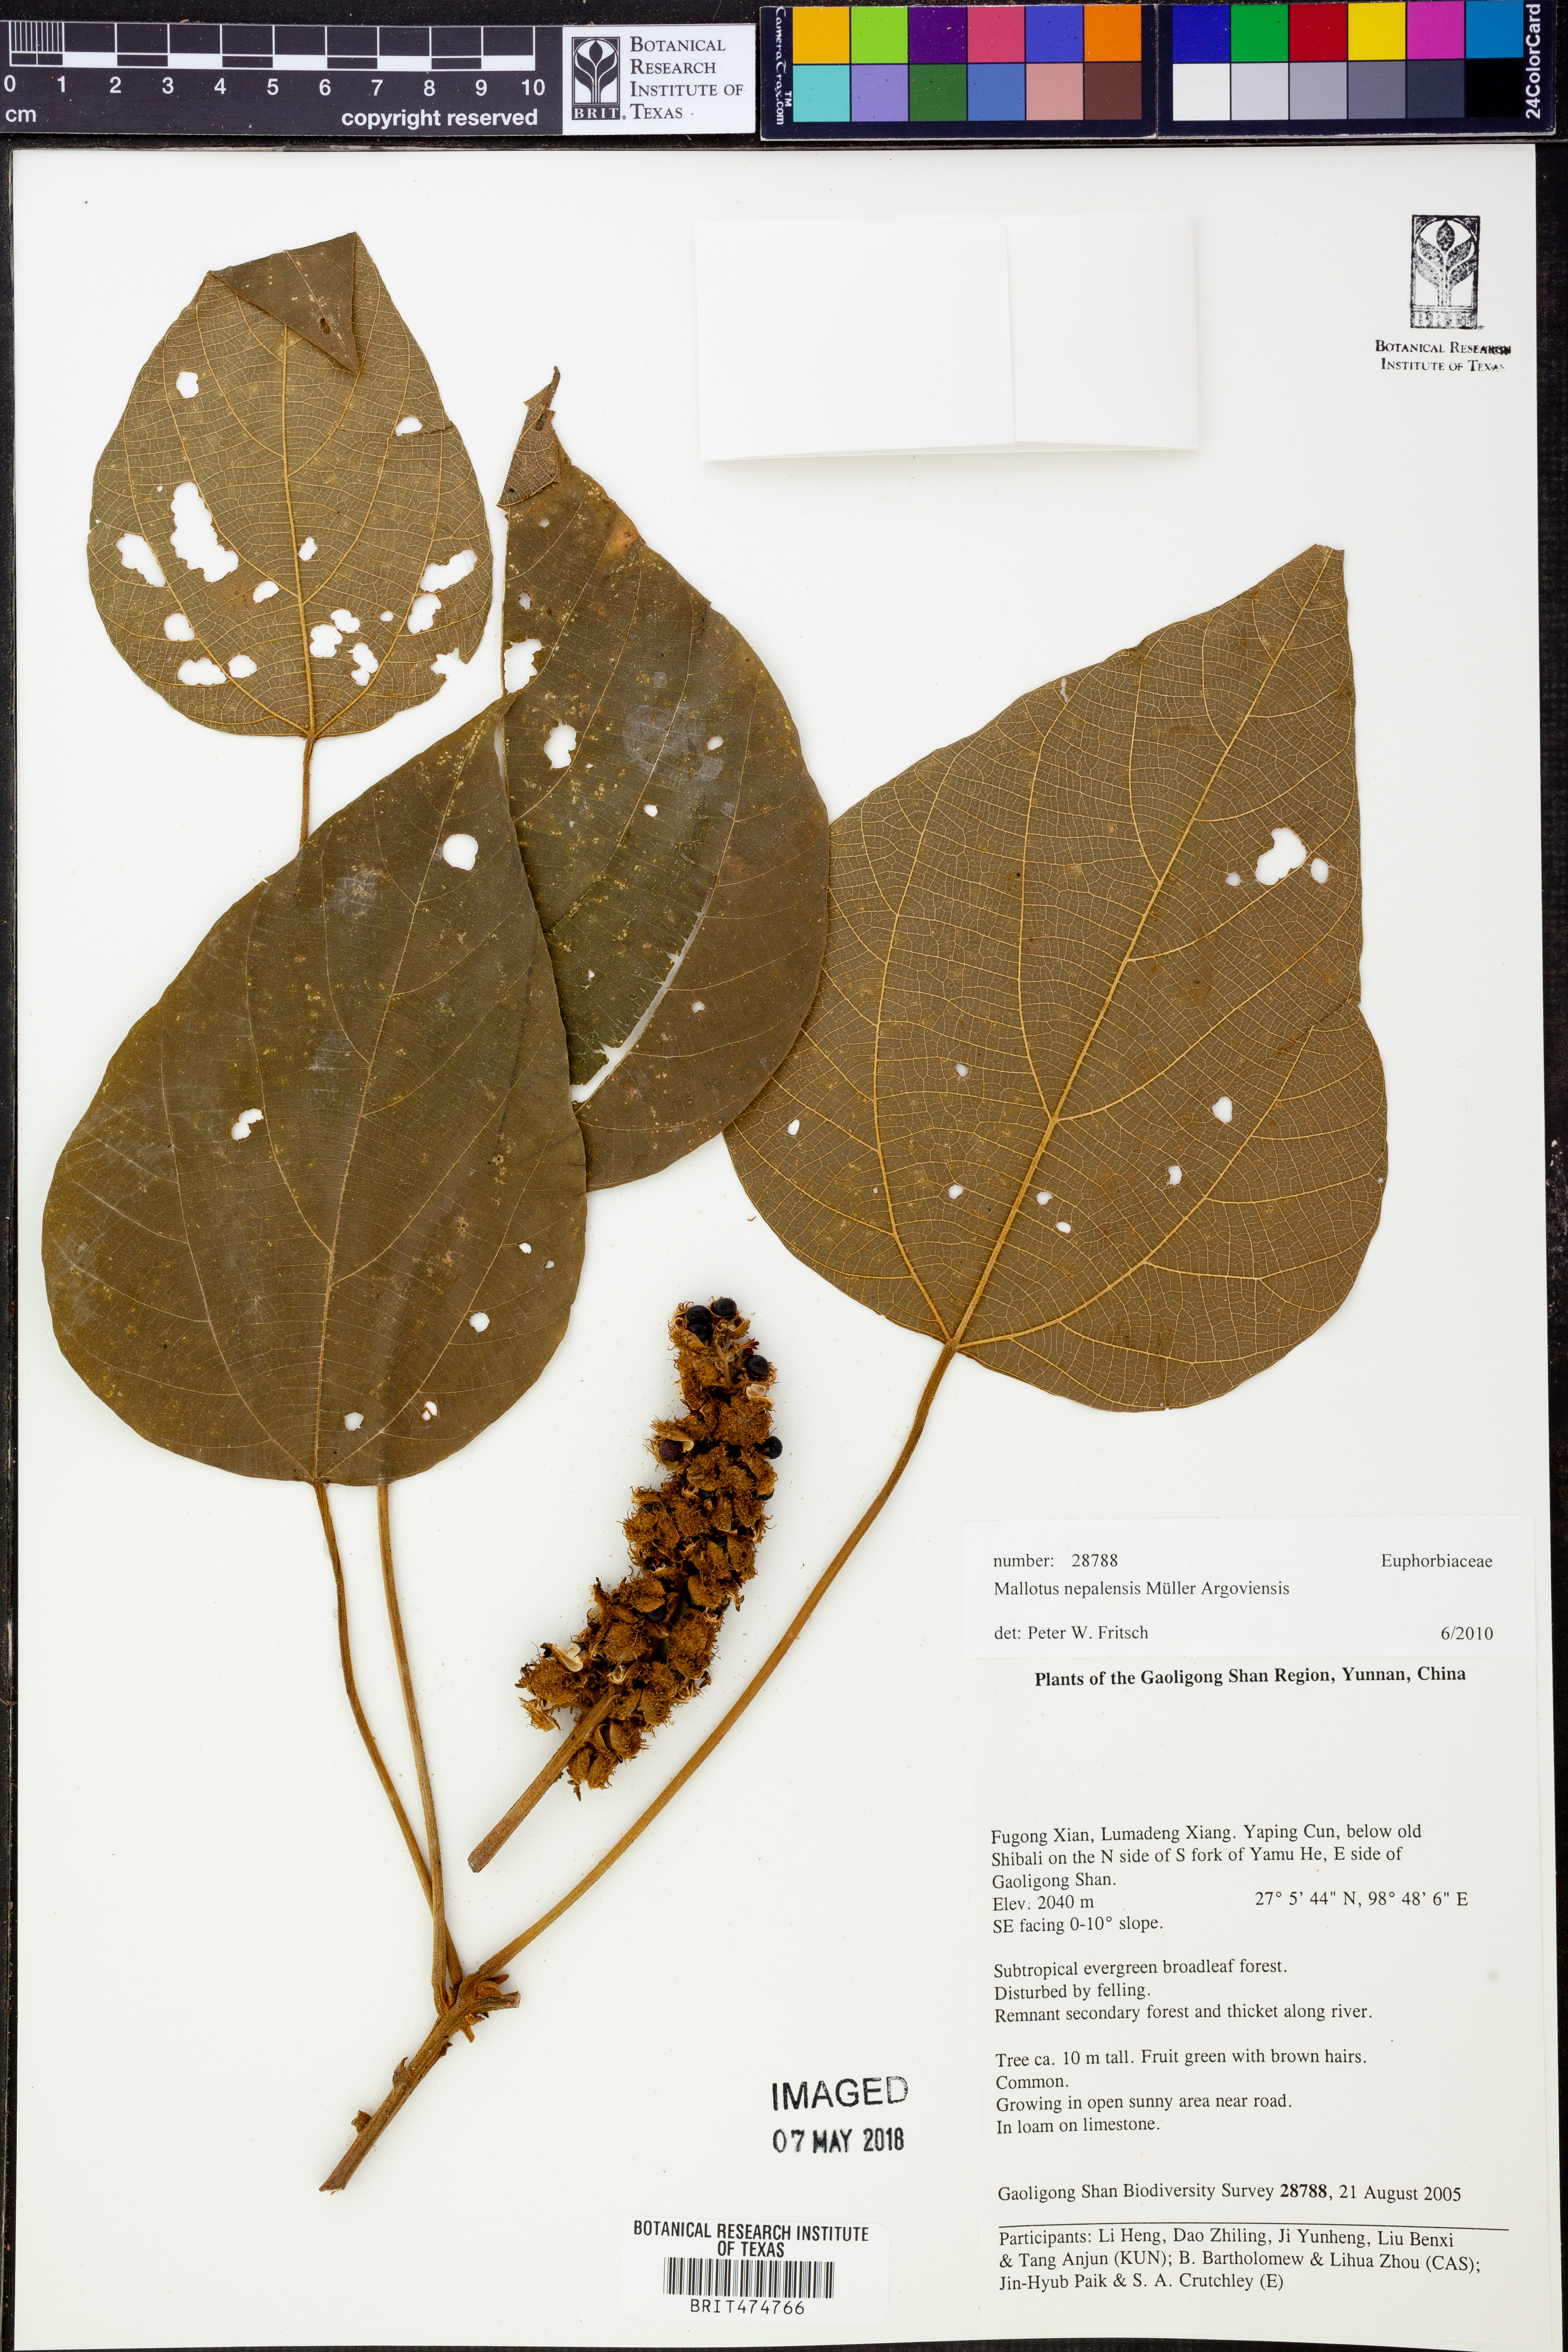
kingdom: Plantae
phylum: Tracheophyta
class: Magnoliopsida
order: Malpighiales
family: Euphorbiaceae
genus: Mallotus
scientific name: Mallotus nepalensis
